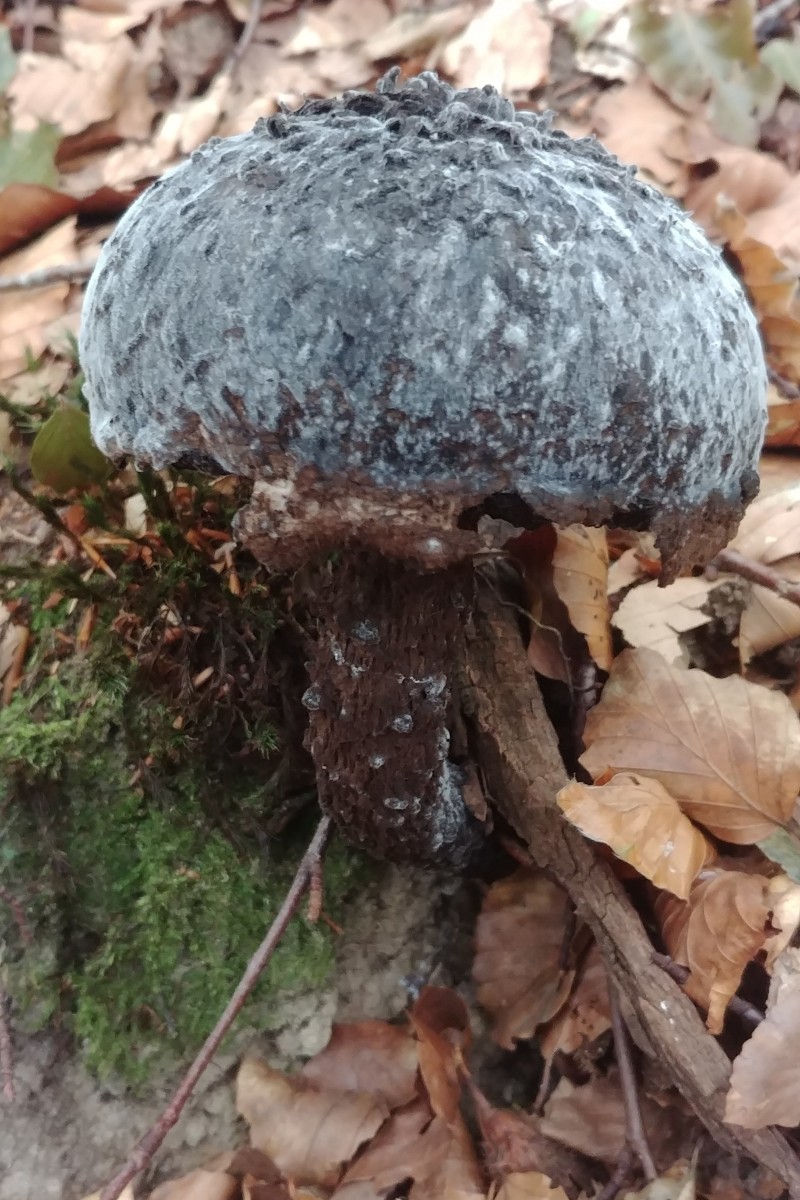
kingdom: Fungi
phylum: Basidiomycota
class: Agaricomycetes
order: Boletales
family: Boletaceae
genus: Strobilomyces
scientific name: Strobilomyces strobilaceus
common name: koglerørhat
